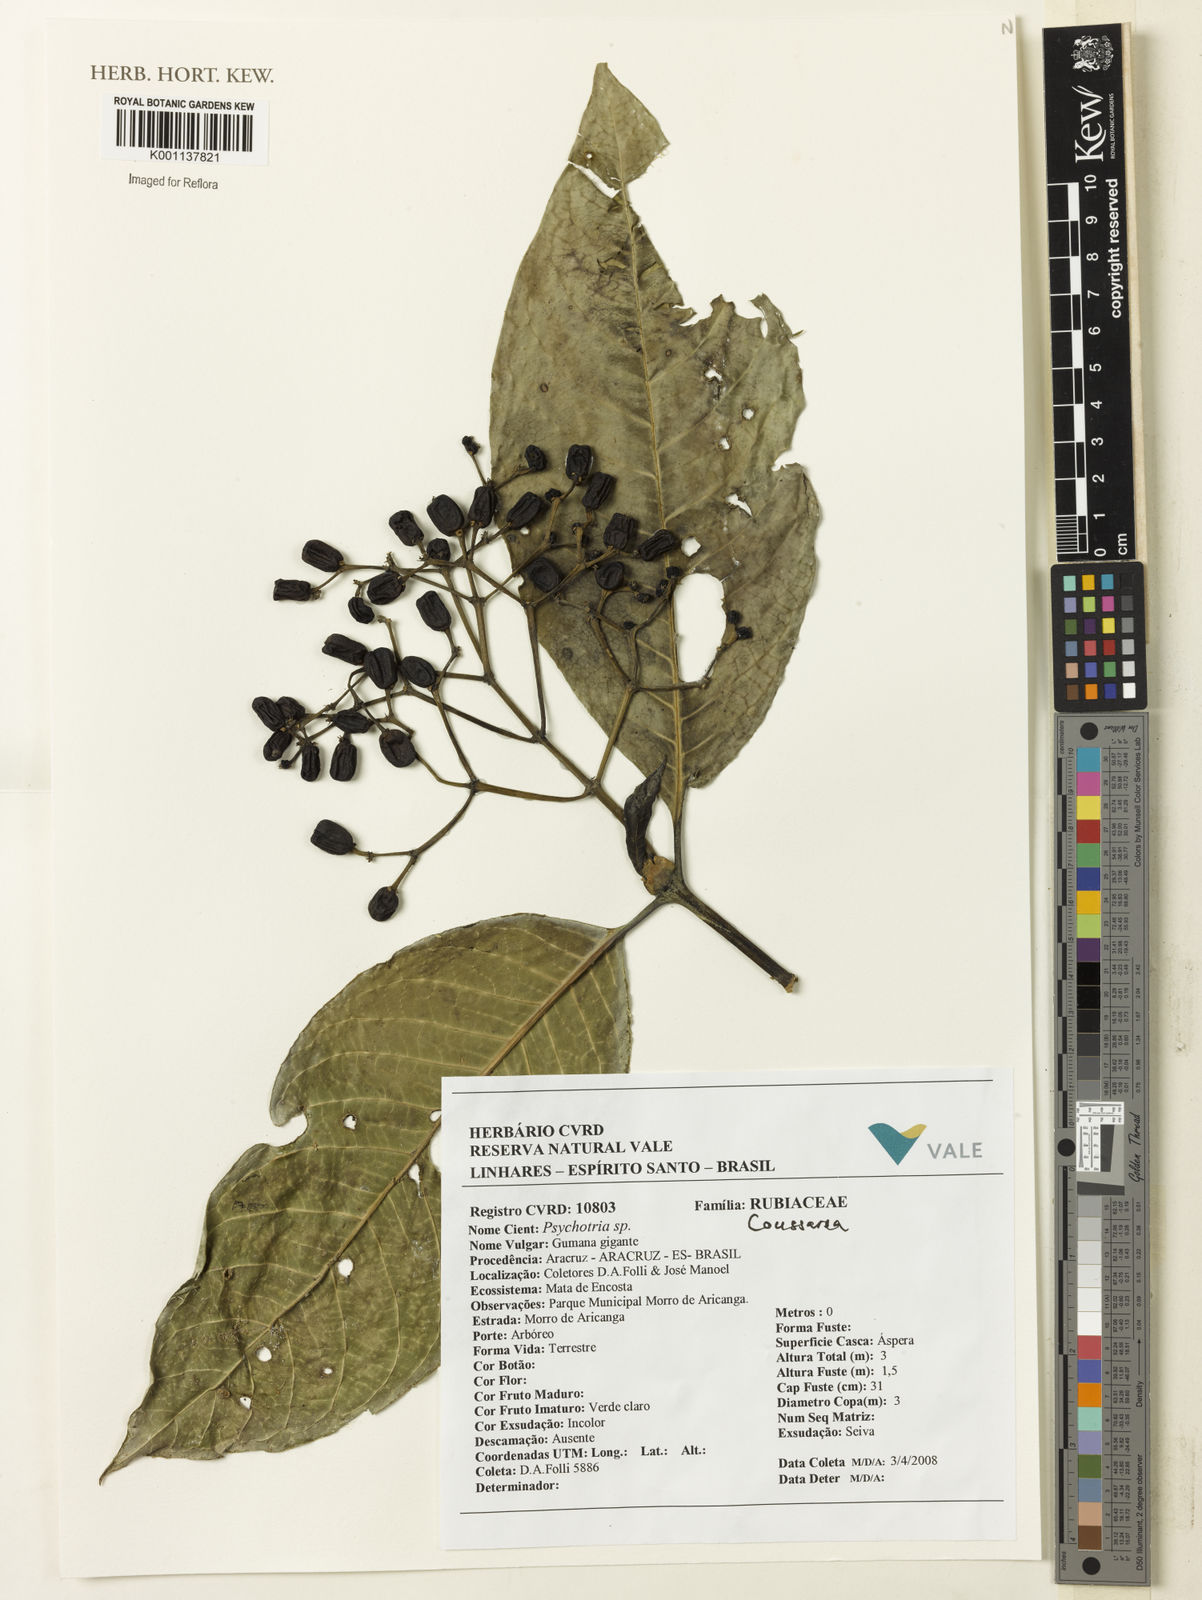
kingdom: Plantae
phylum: Tracheophyta
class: Magnoliopsida
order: Gentianales
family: Rubiaceae
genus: Coussarea
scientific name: Coussarea
